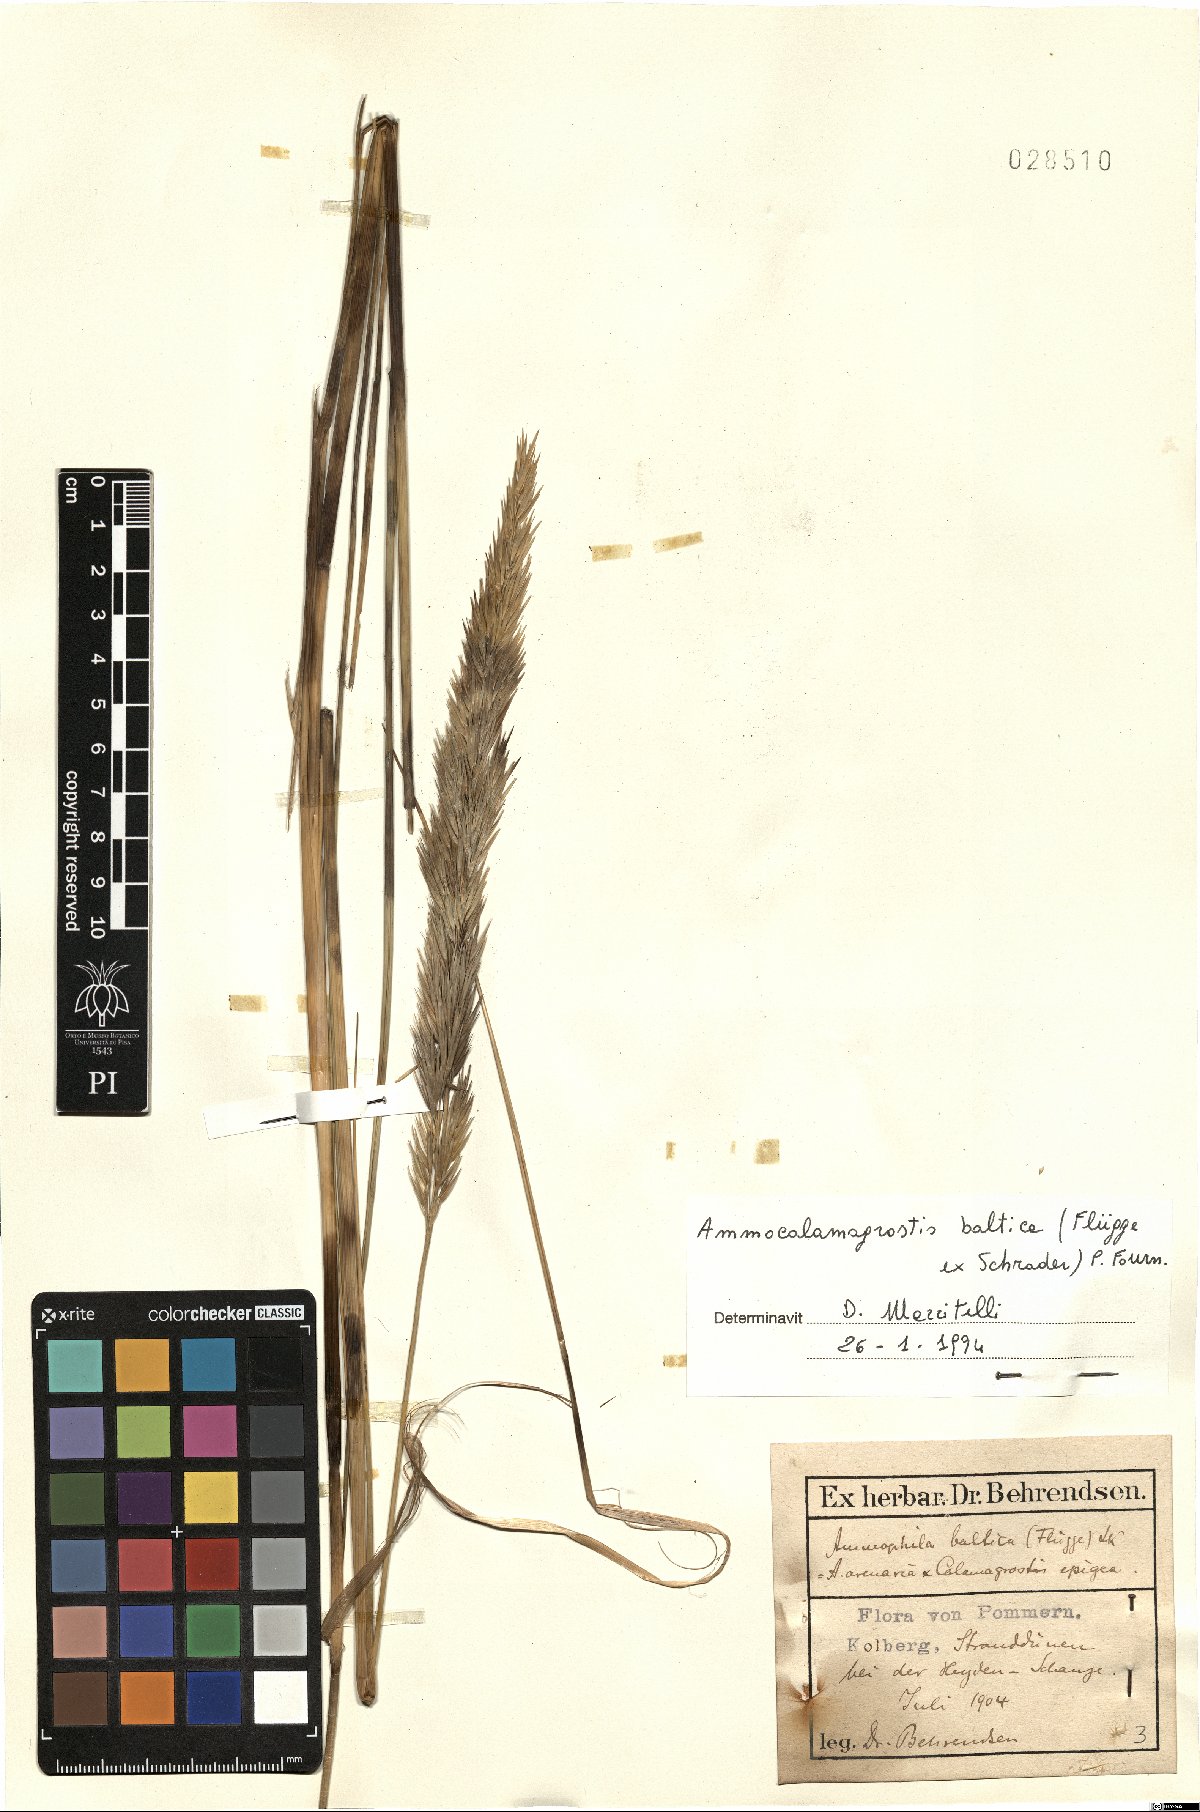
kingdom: Plantae
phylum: Tracheophyta
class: Liliopsida
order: Poales
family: Poaceae
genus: Calamagrostis
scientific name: Calamagrostis baltica
